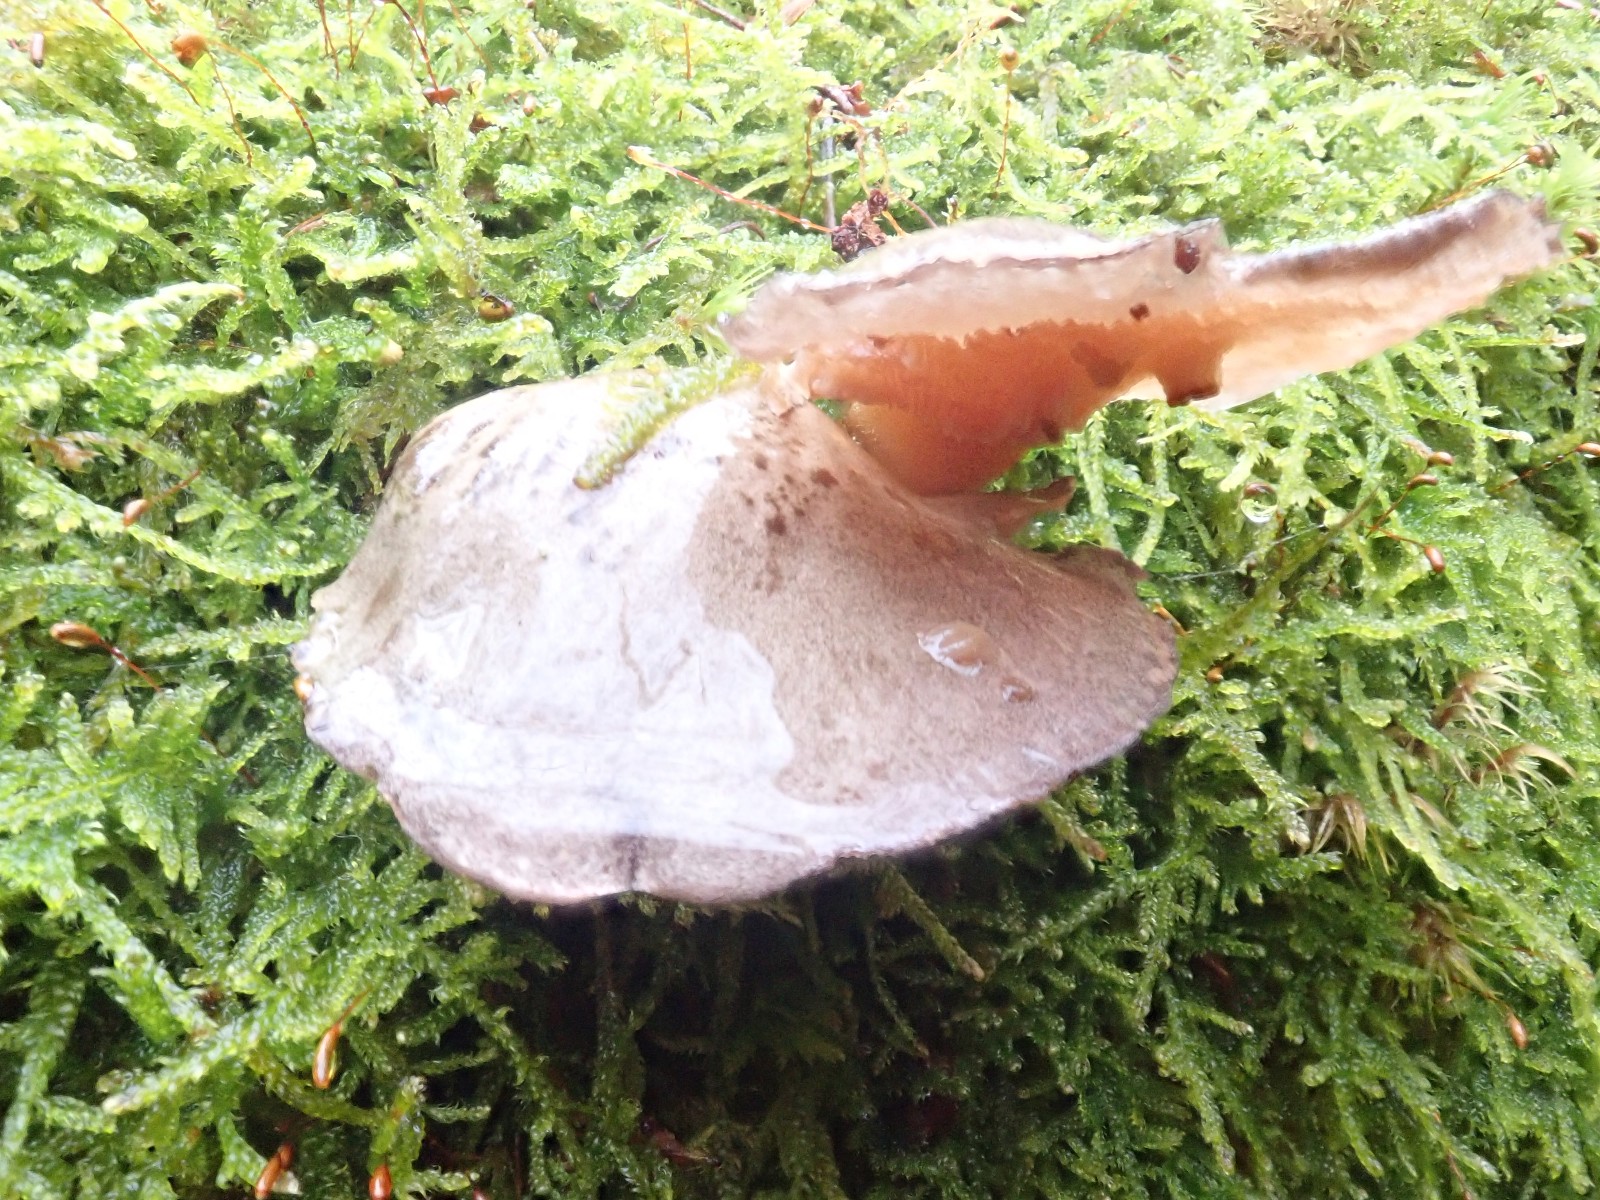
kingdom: Fungi
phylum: Basidiomycota
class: Agaricomycetes
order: Agaricales
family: Sarcomyxaceae
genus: Sarcomyxa
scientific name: Sarcomyxa serotina
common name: gummihat
